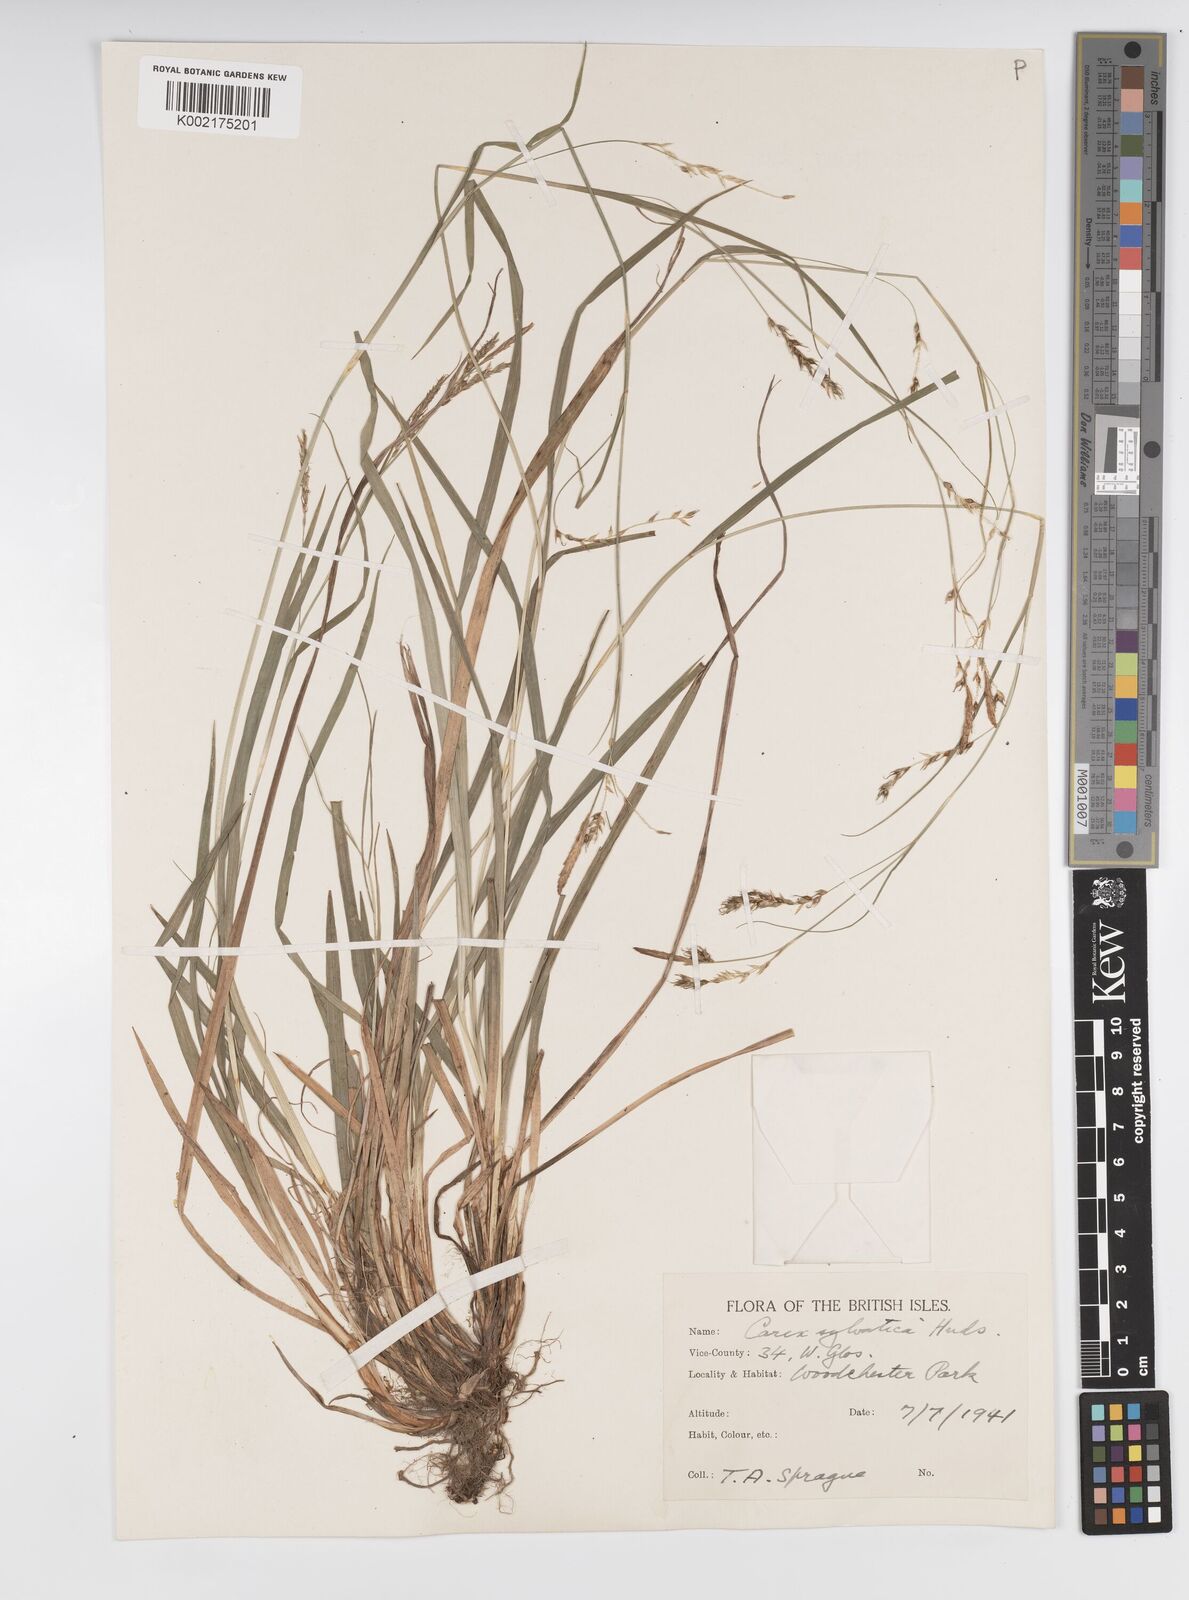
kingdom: Plantae
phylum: Tracheophyta
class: Liliopsida
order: Poales
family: Cyperaceae
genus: Carex
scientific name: Carex sylvatica
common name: Wood-sedge
